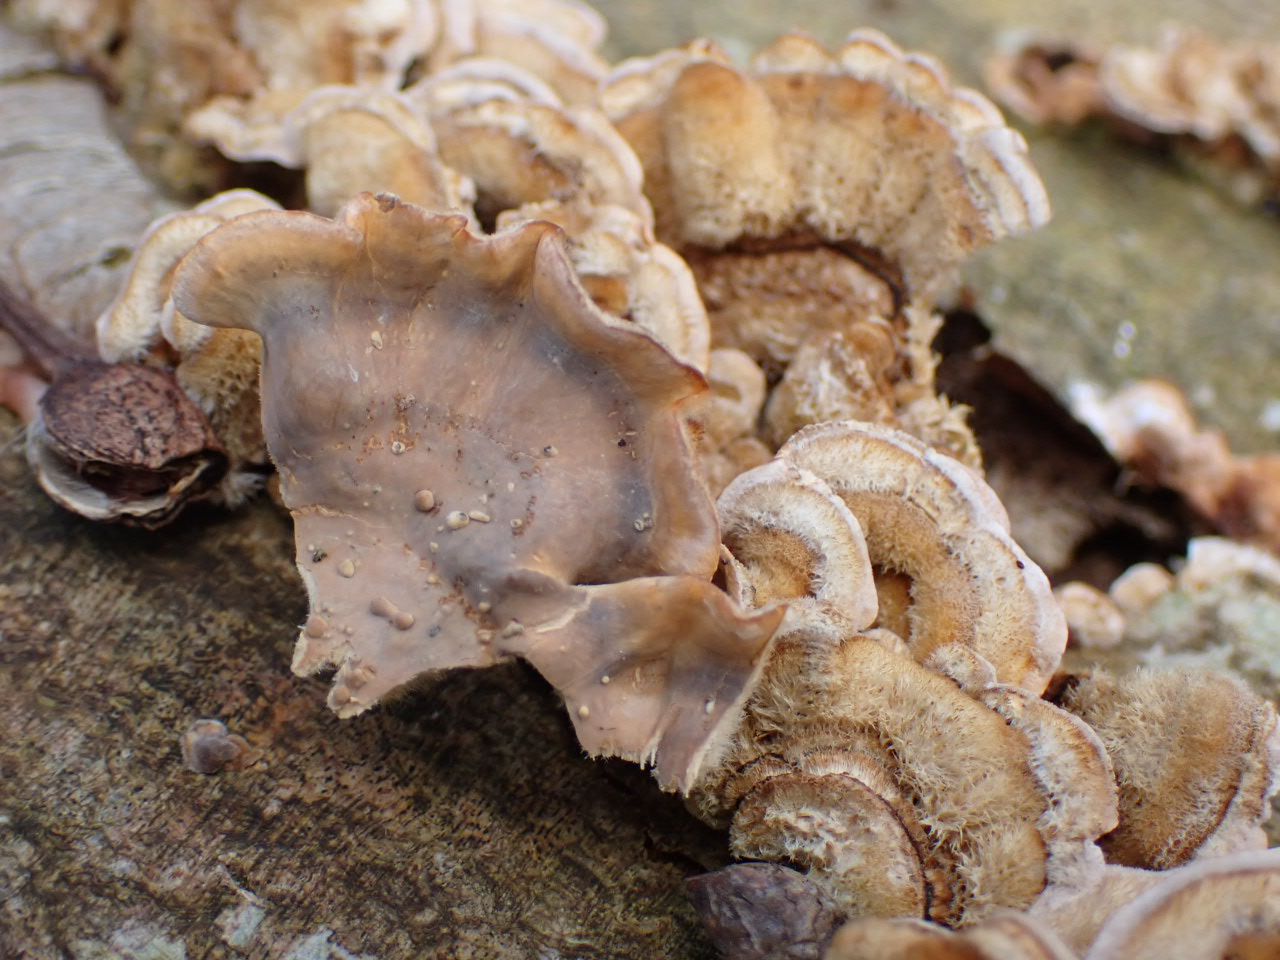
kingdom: Fungi
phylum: Basidiomycota
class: Agaricomycetes
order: Russulales
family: Stereaceae
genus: Stereum
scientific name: Stereum hirsutum
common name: håret lædersvamp
